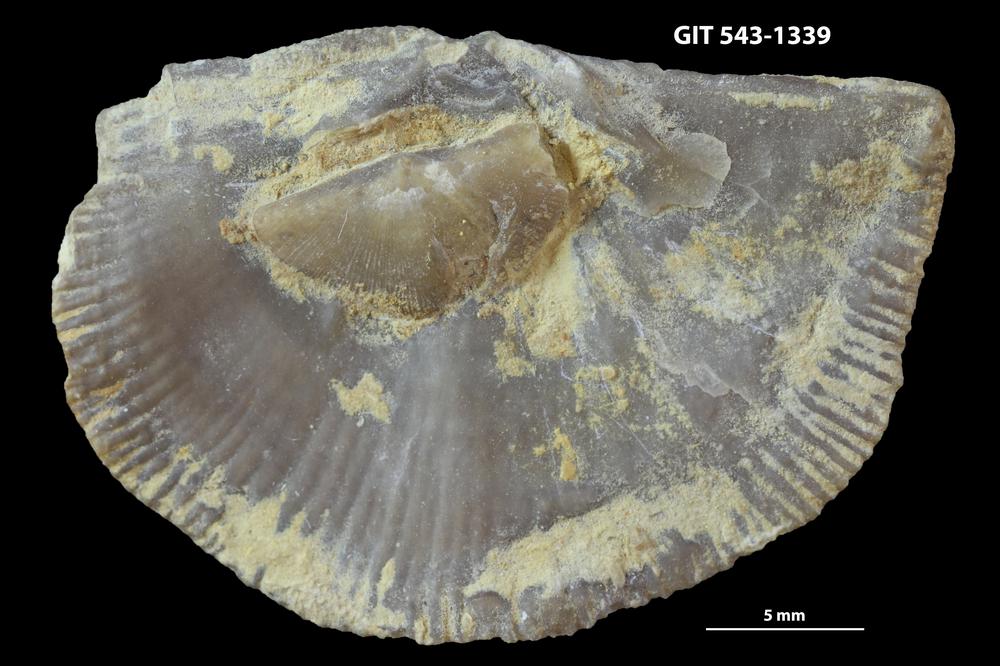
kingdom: Animalia
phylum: Brachiopoda
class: Rhynchonellata
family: Clitambonitidae
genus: Vellamo
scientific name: Vellamo
